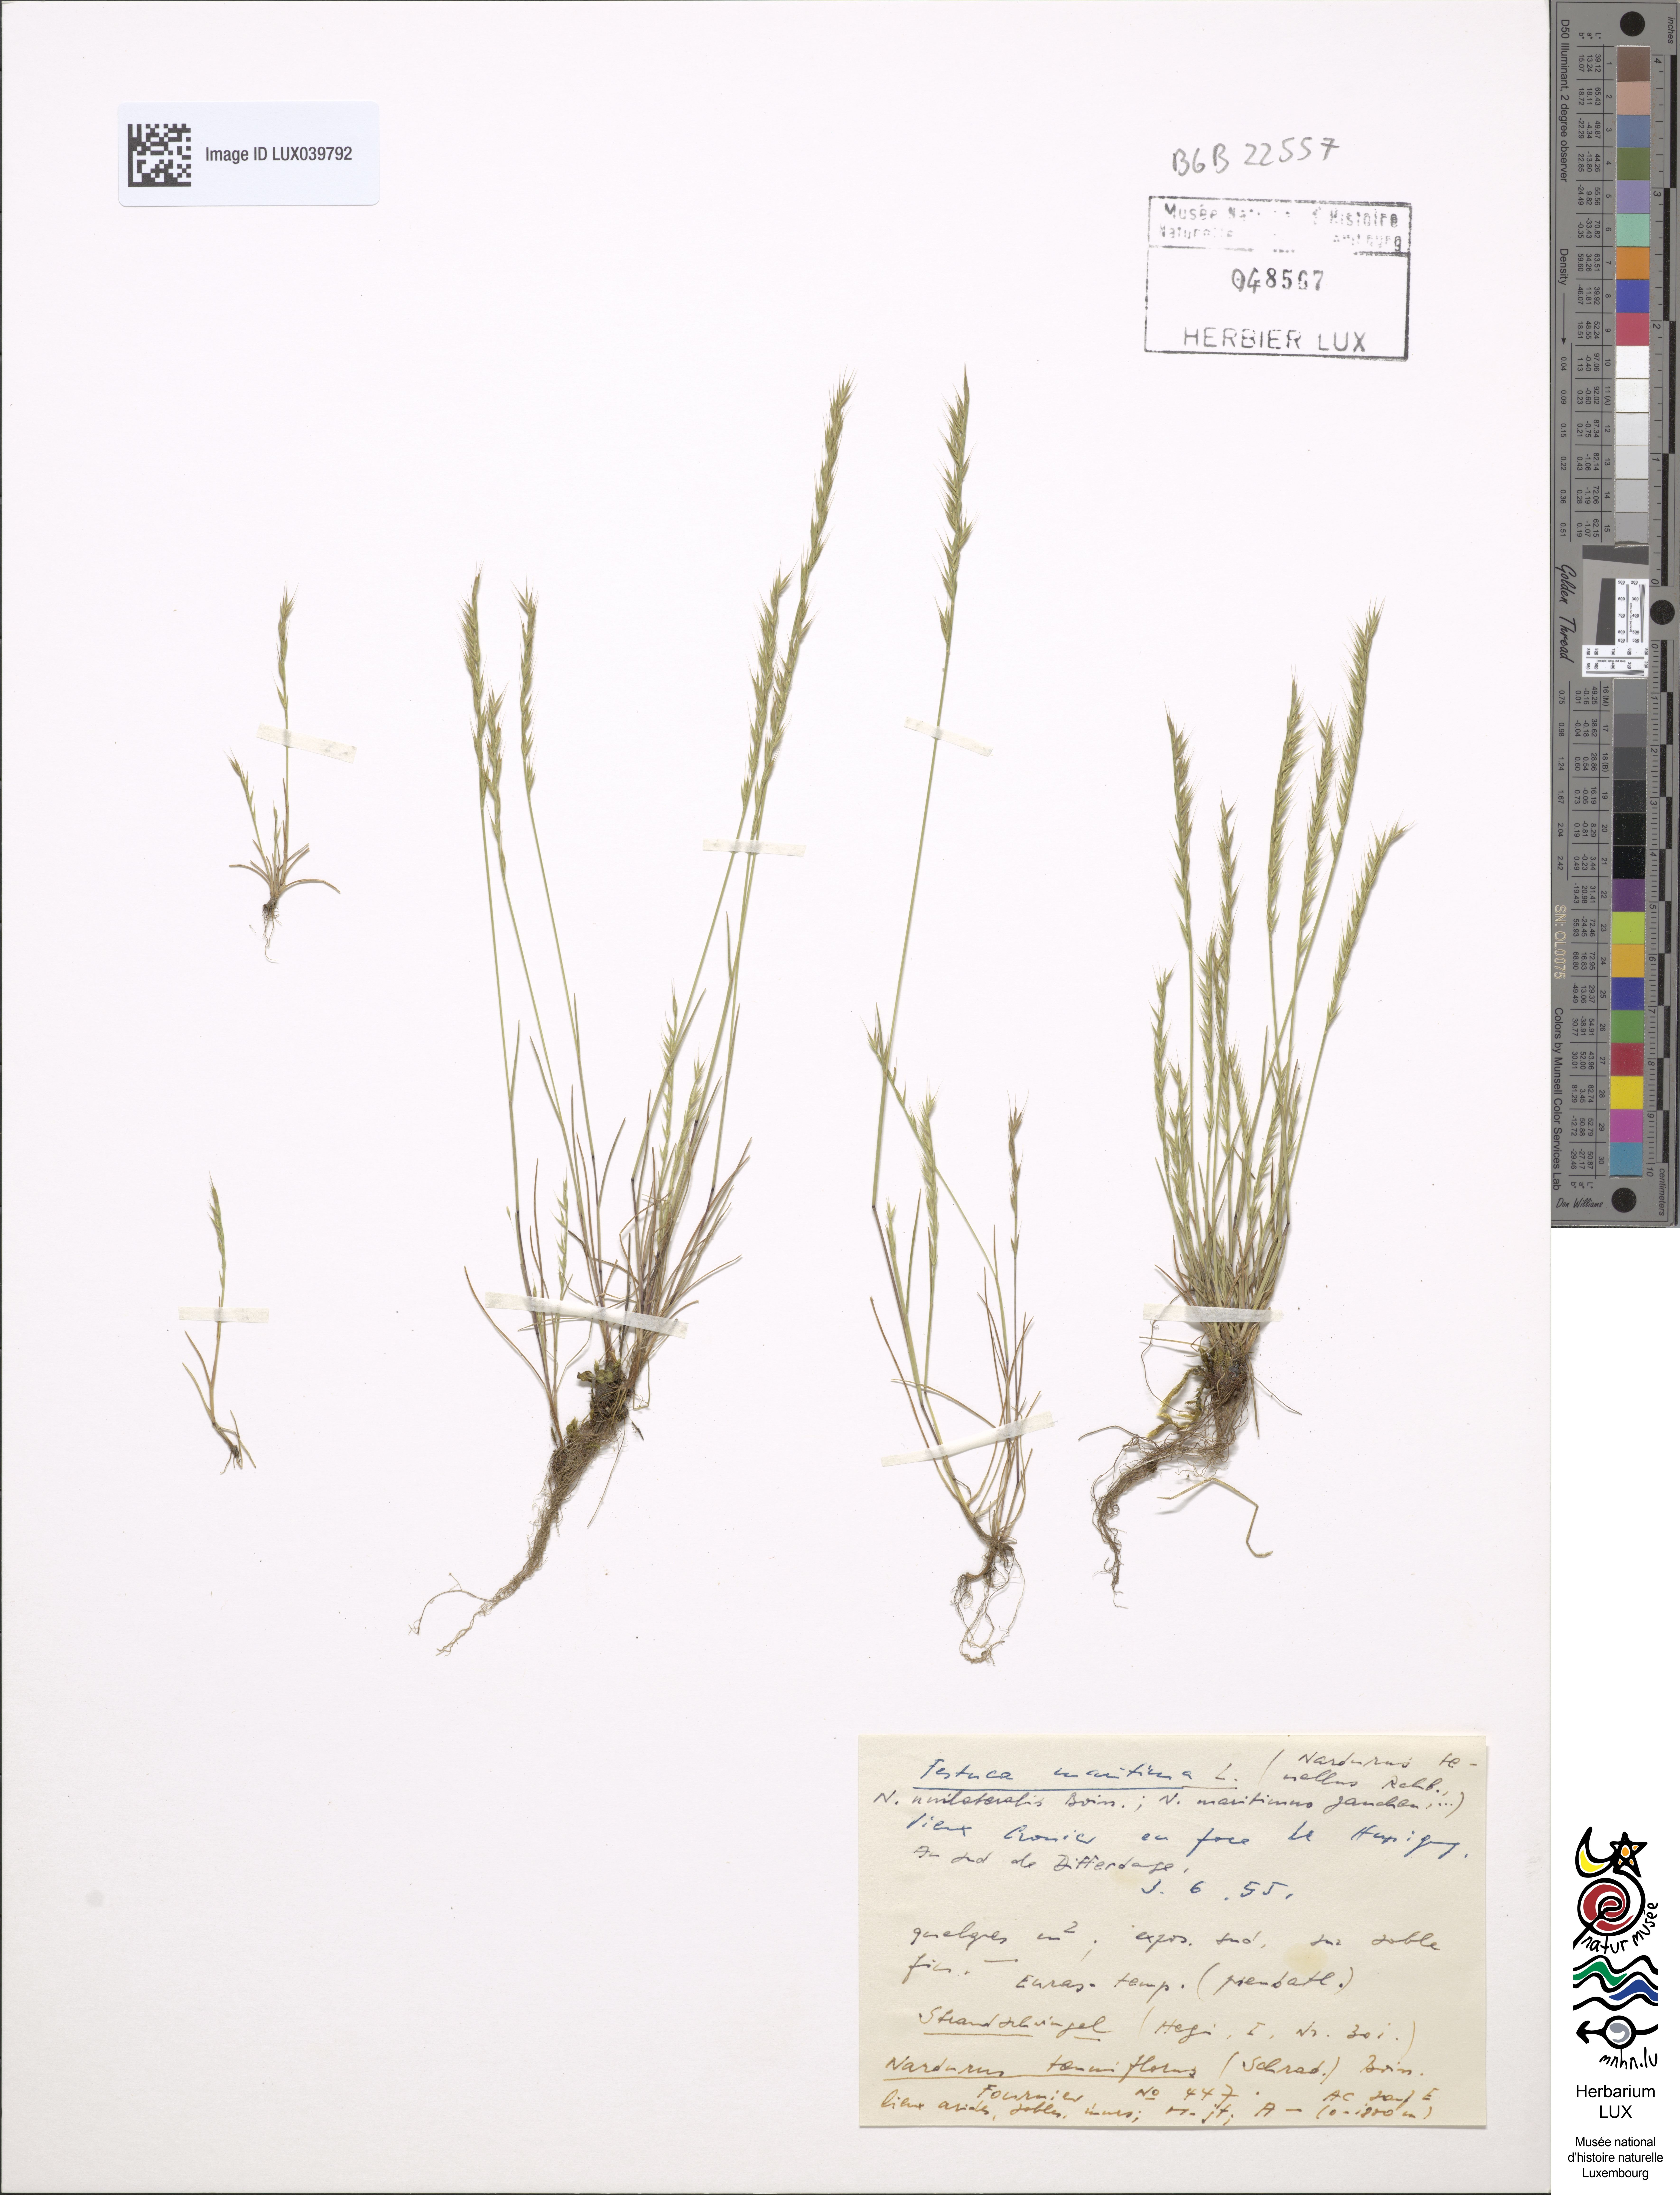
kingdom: Plantae
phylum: Tracheophyta
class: Liliopsida
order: Poales
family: Poaceae
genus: Festuca
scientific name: Festuca maritima
